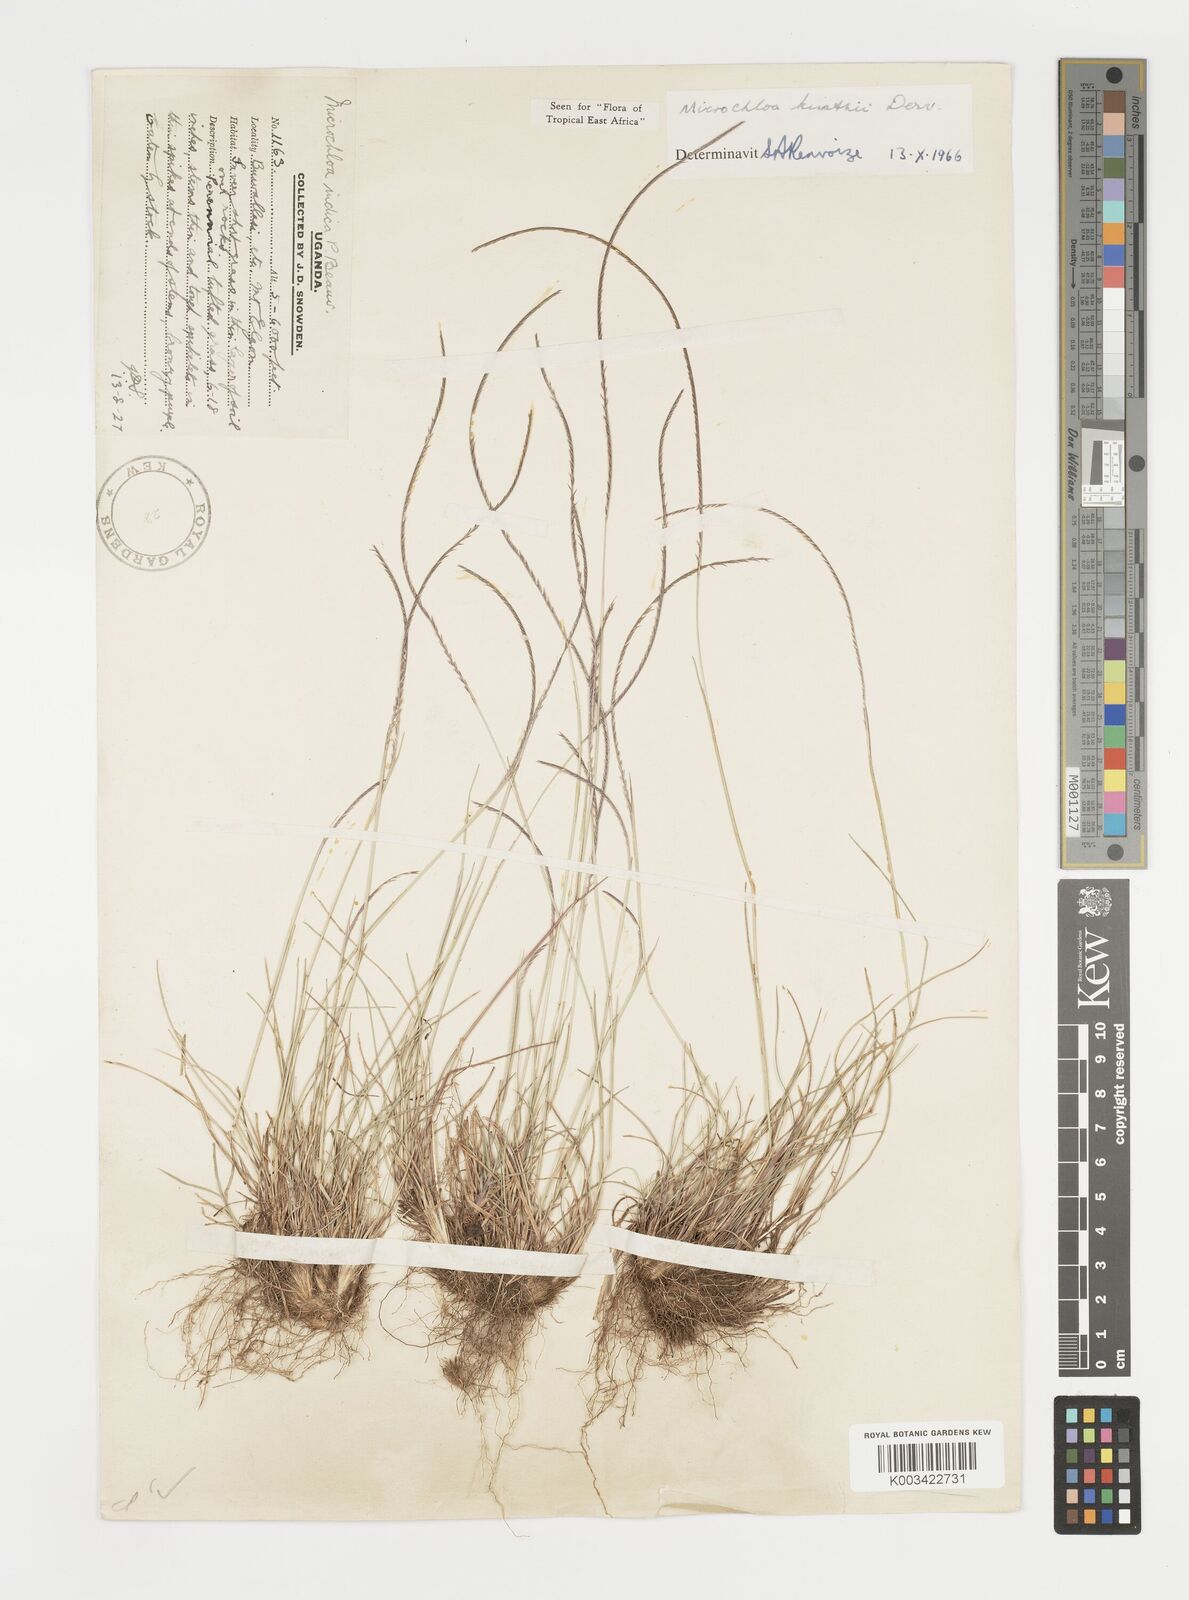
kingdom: Plantae
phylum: Tracheophyta
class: Liliopsida
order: Poales
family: Poaceae
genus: Microchloa
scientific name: Microchloa kunthii
